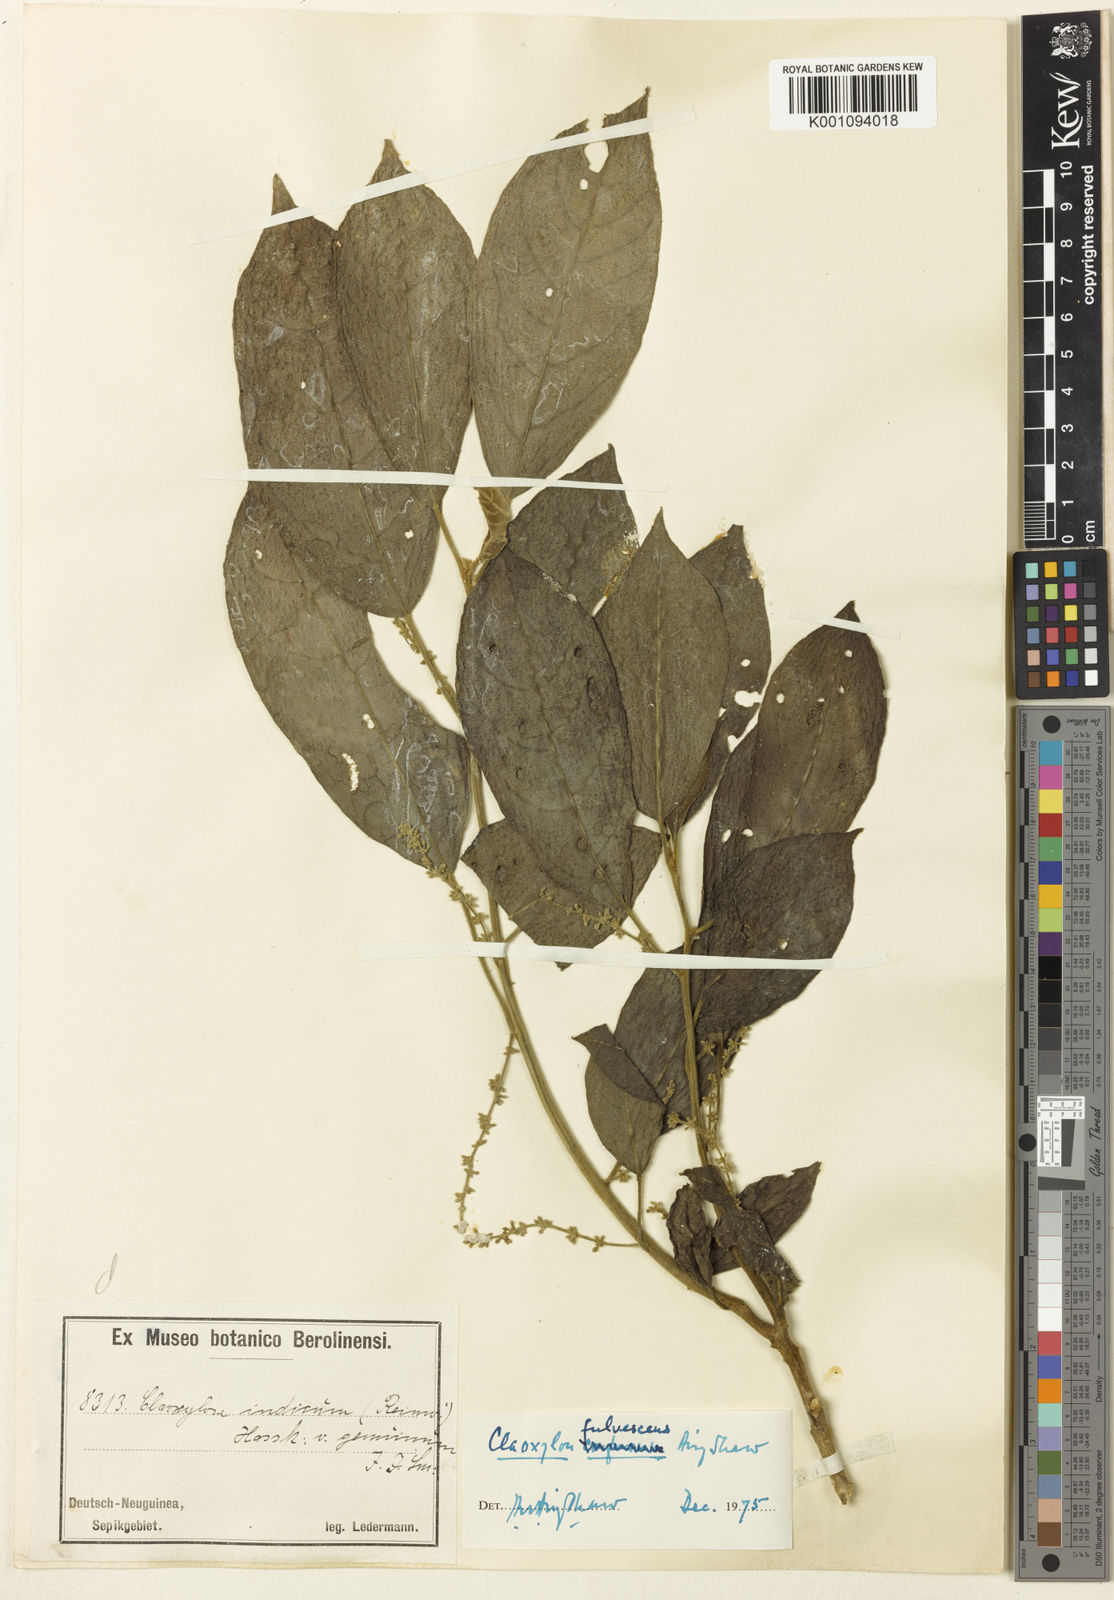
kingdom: Plantae
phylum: Tracheophyta
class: Magnoliopsida
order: Malpighiales
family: Euphorbiaceae
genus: Claoxylon
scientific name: Claoxylon fulvescens
